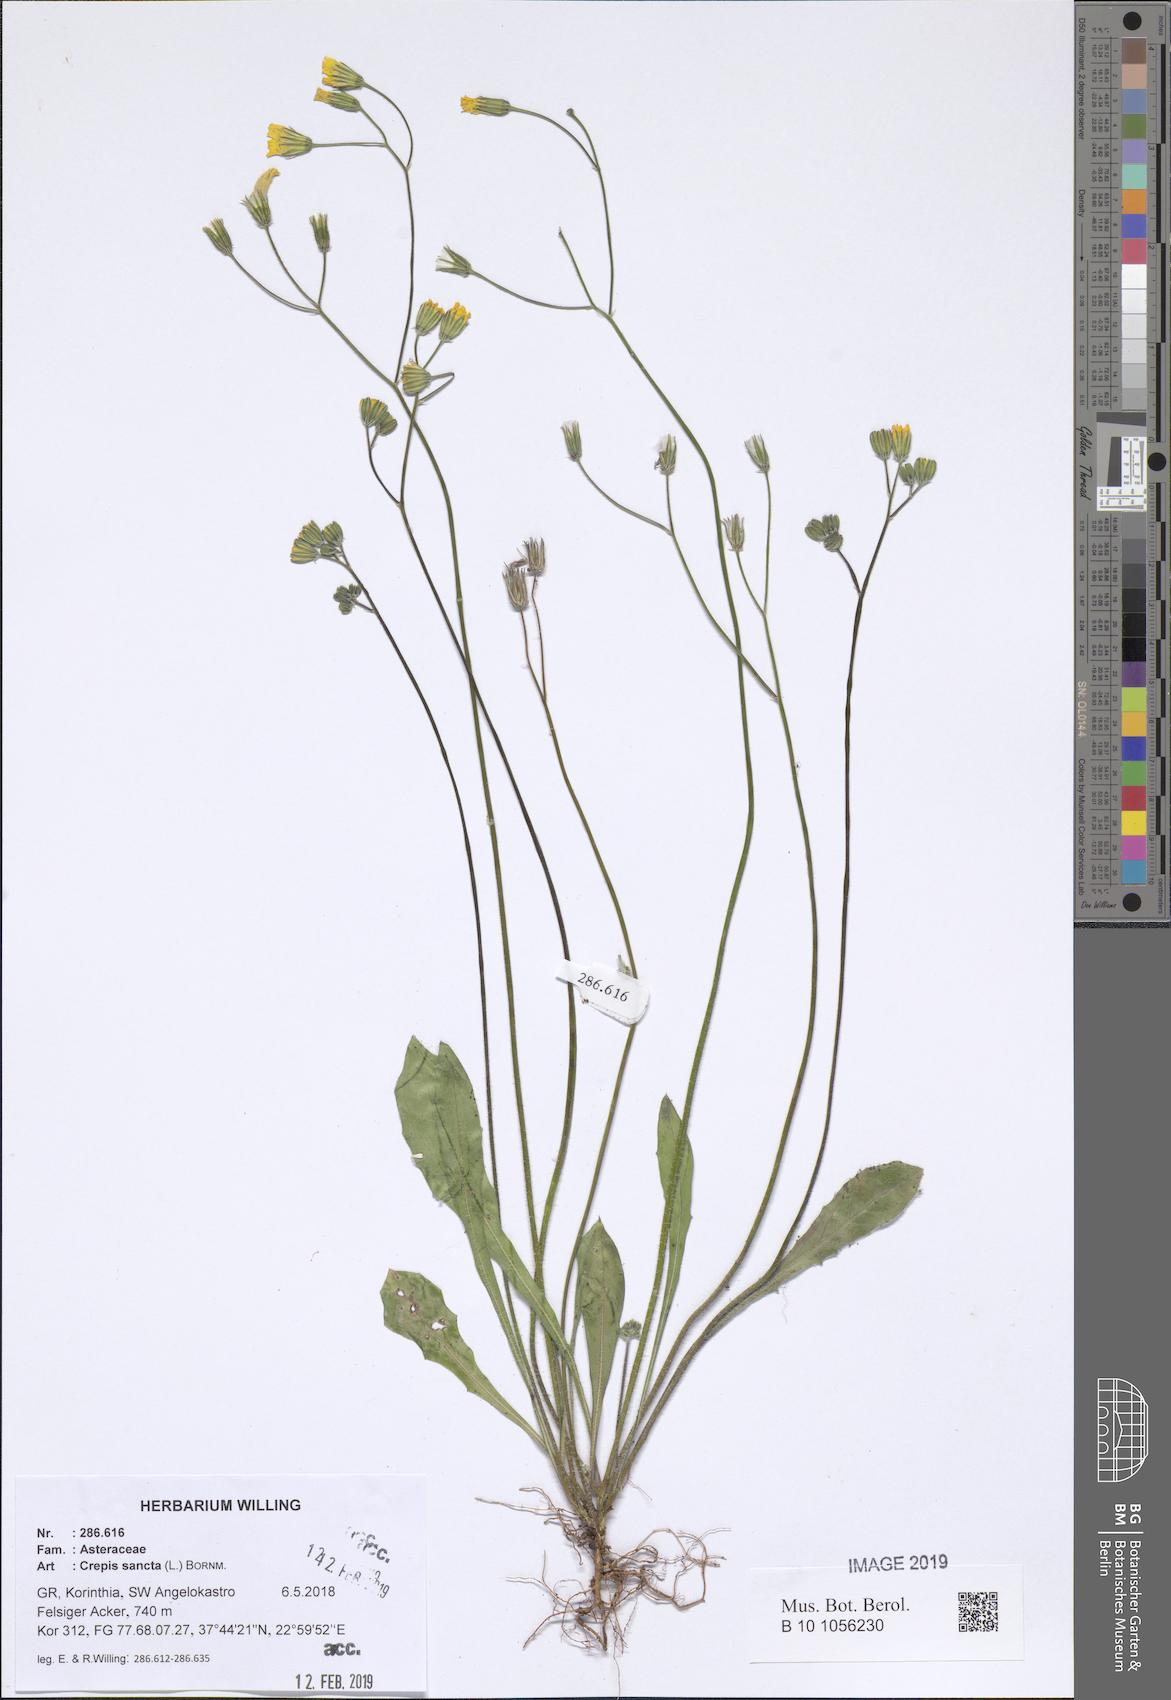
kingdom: Plantae
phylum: Tracheophyta
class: Magnoliopsida
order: Asterales
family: Asteraceae
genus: Crepis
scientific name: Crepis sancta
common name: Hawk's-beard
